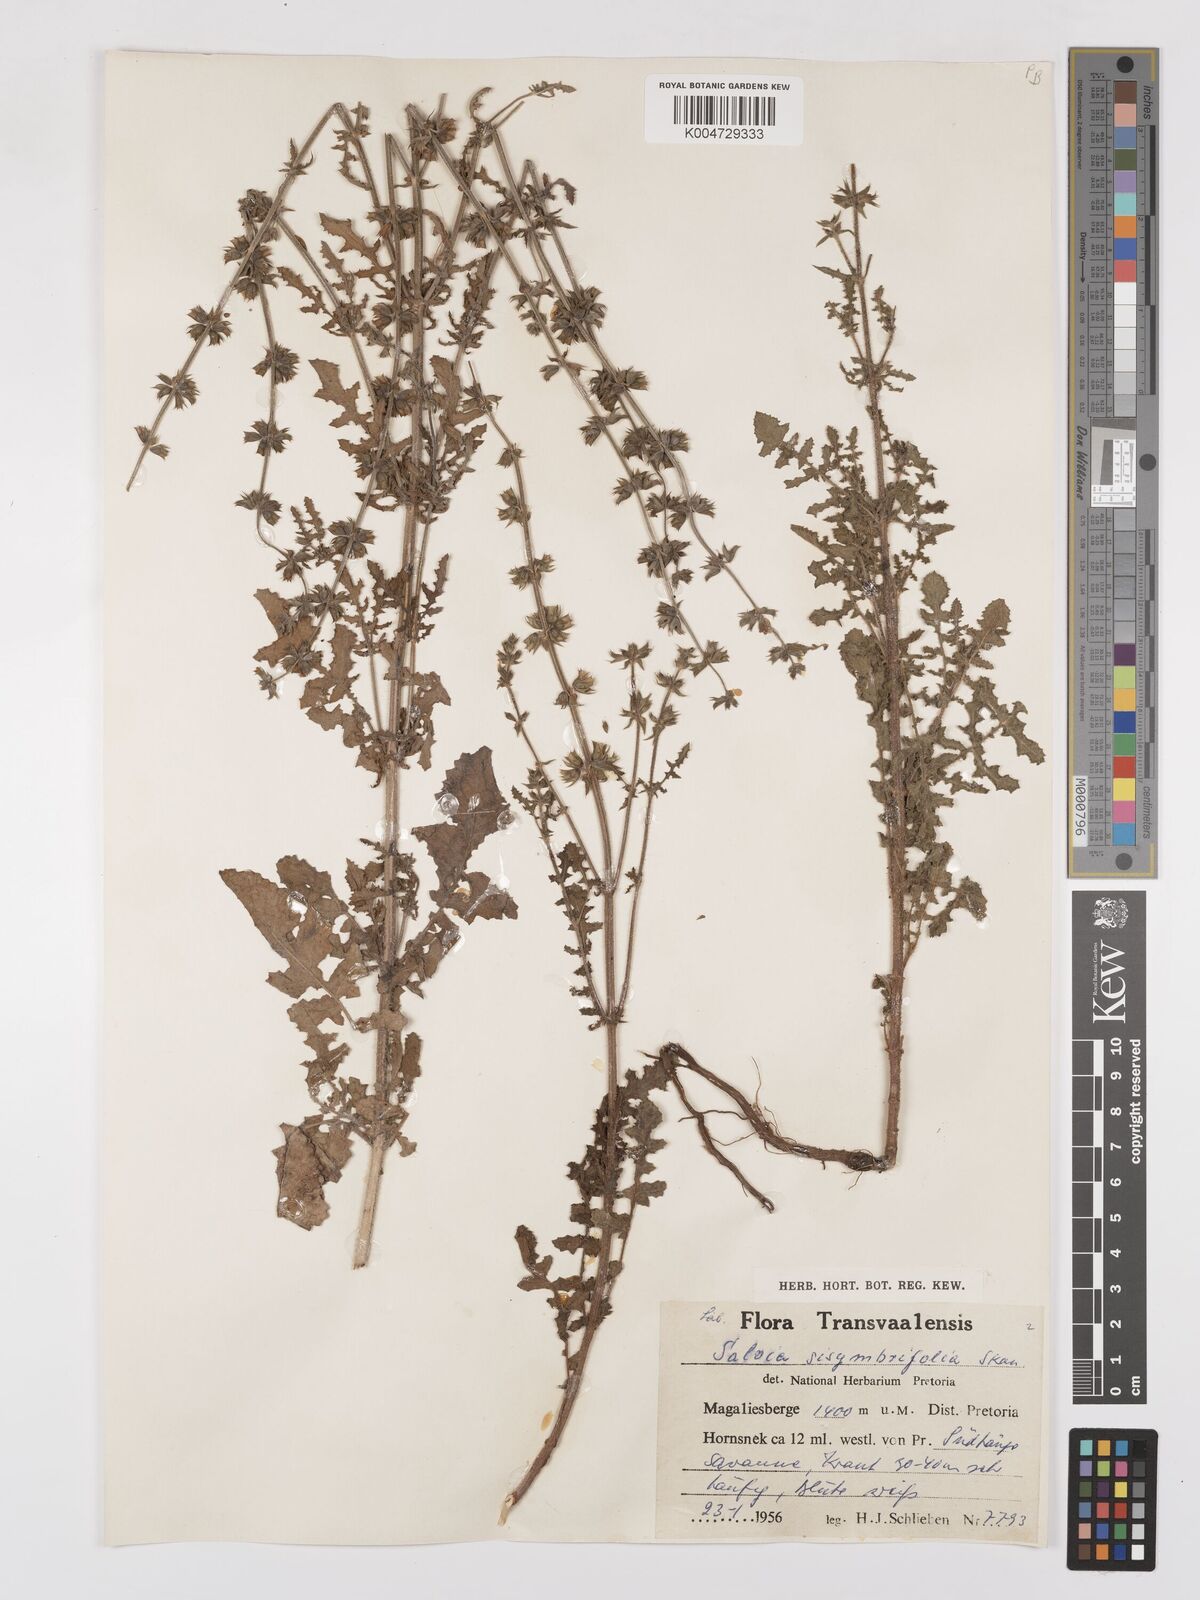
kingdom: Plantae
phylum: Tracheophyta
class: Magnoliopsida
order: Lamiales
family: Lamiaceae
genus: Salvia
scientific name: Salvia runcinata
